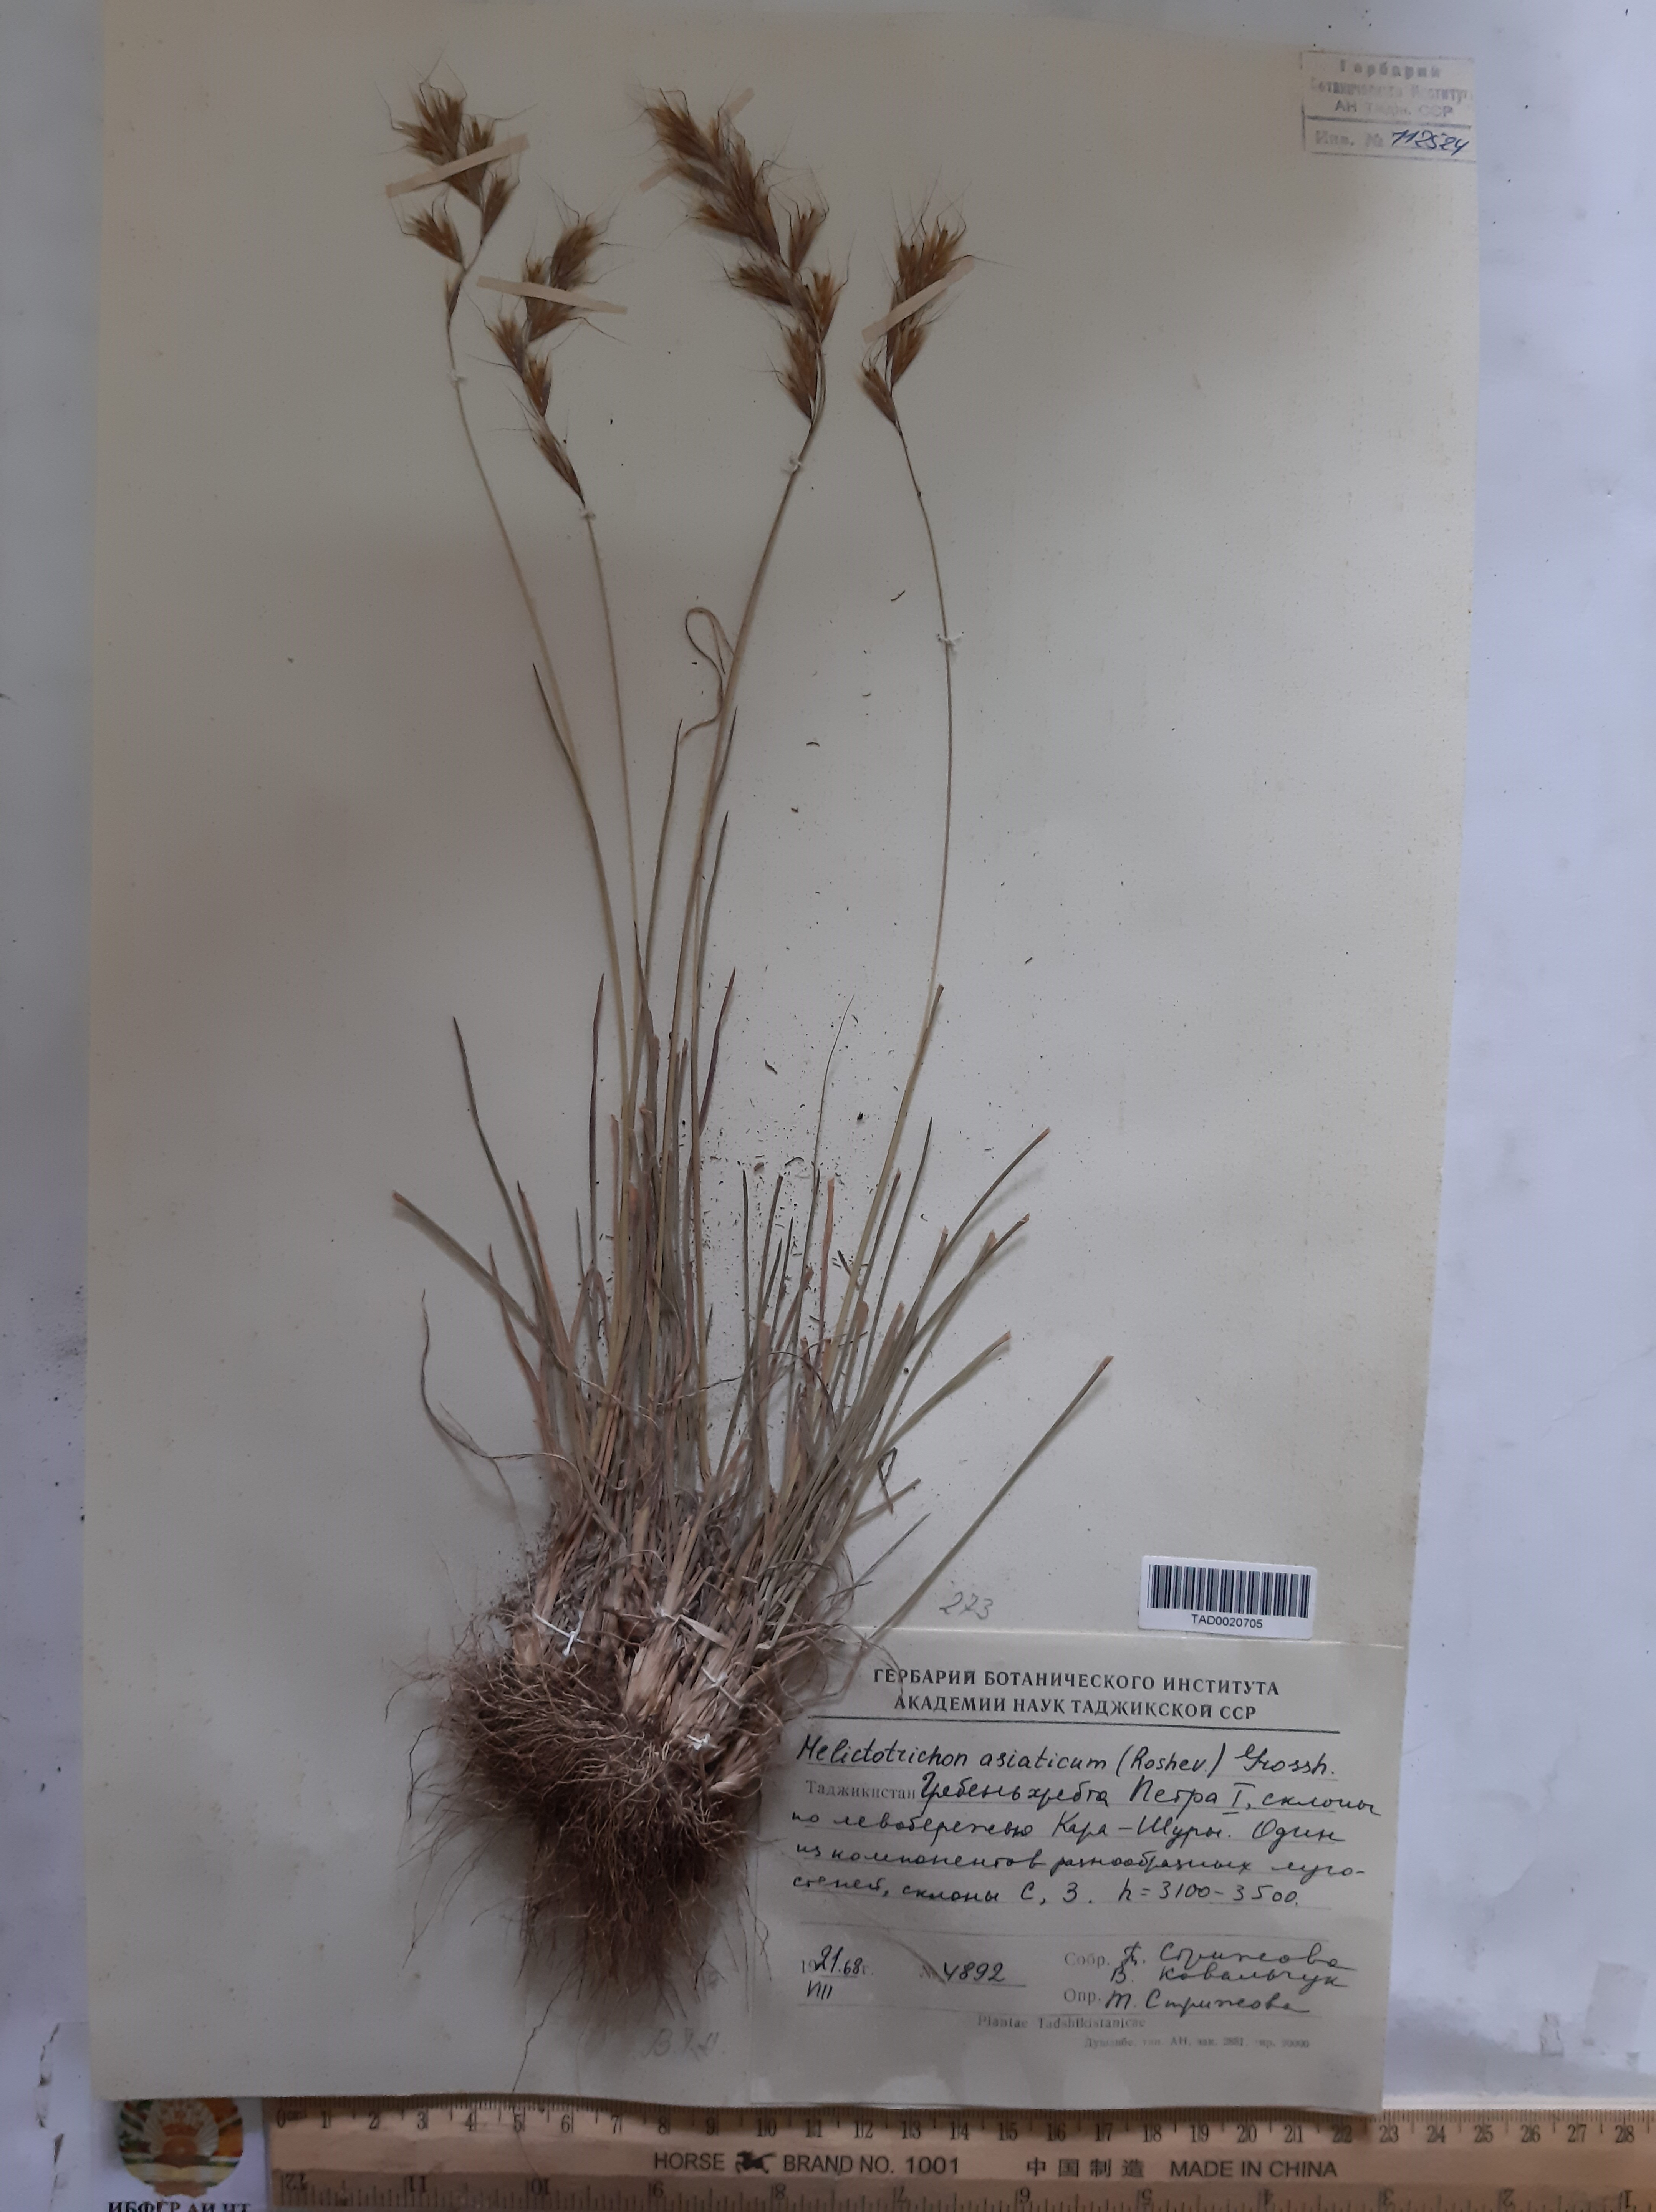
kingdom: Plantae
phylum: Tracheophyta
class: Liliopsida
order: Poales
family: Poaceae
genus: Helictochloa
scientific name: Helictochloa hookeri
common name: Hooker's alpine oatgrass
